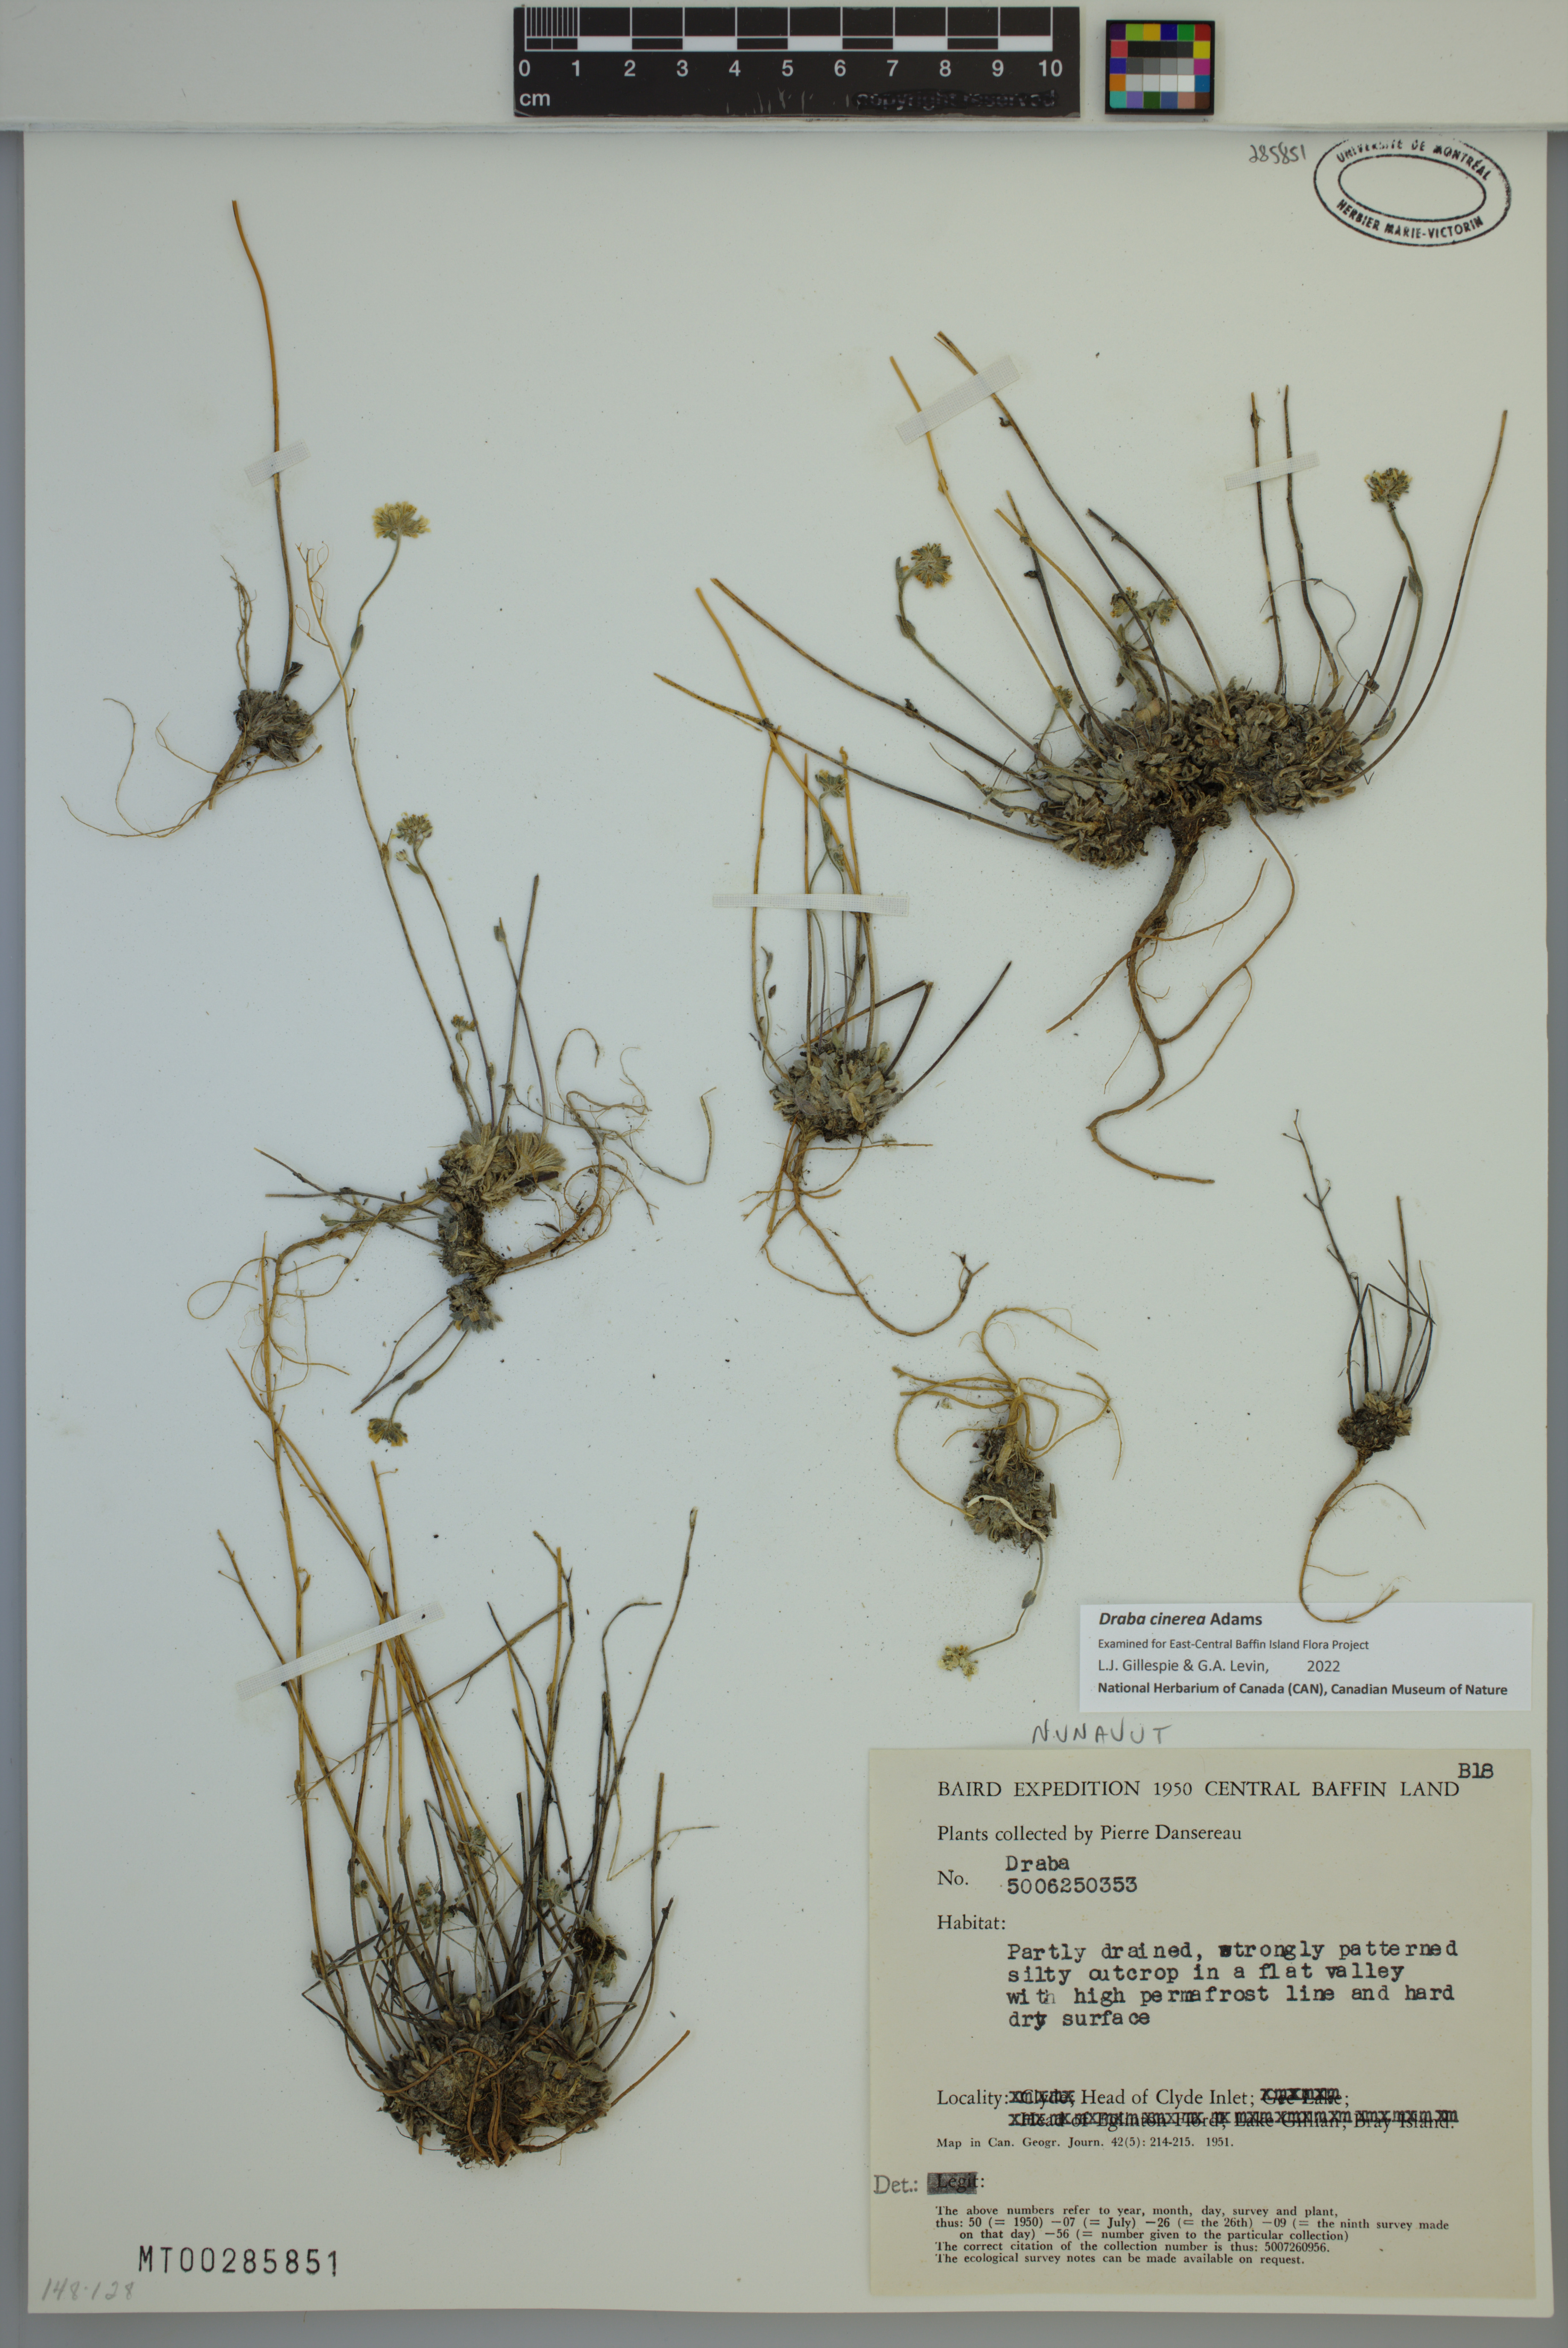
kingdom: Plantae
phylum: Tracheophyta
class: Magnoliopsida
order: Brassicales
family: Brassicaceae
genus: Draba
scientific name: Draba cinerea
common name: Ash-coloured whitlow-grass
